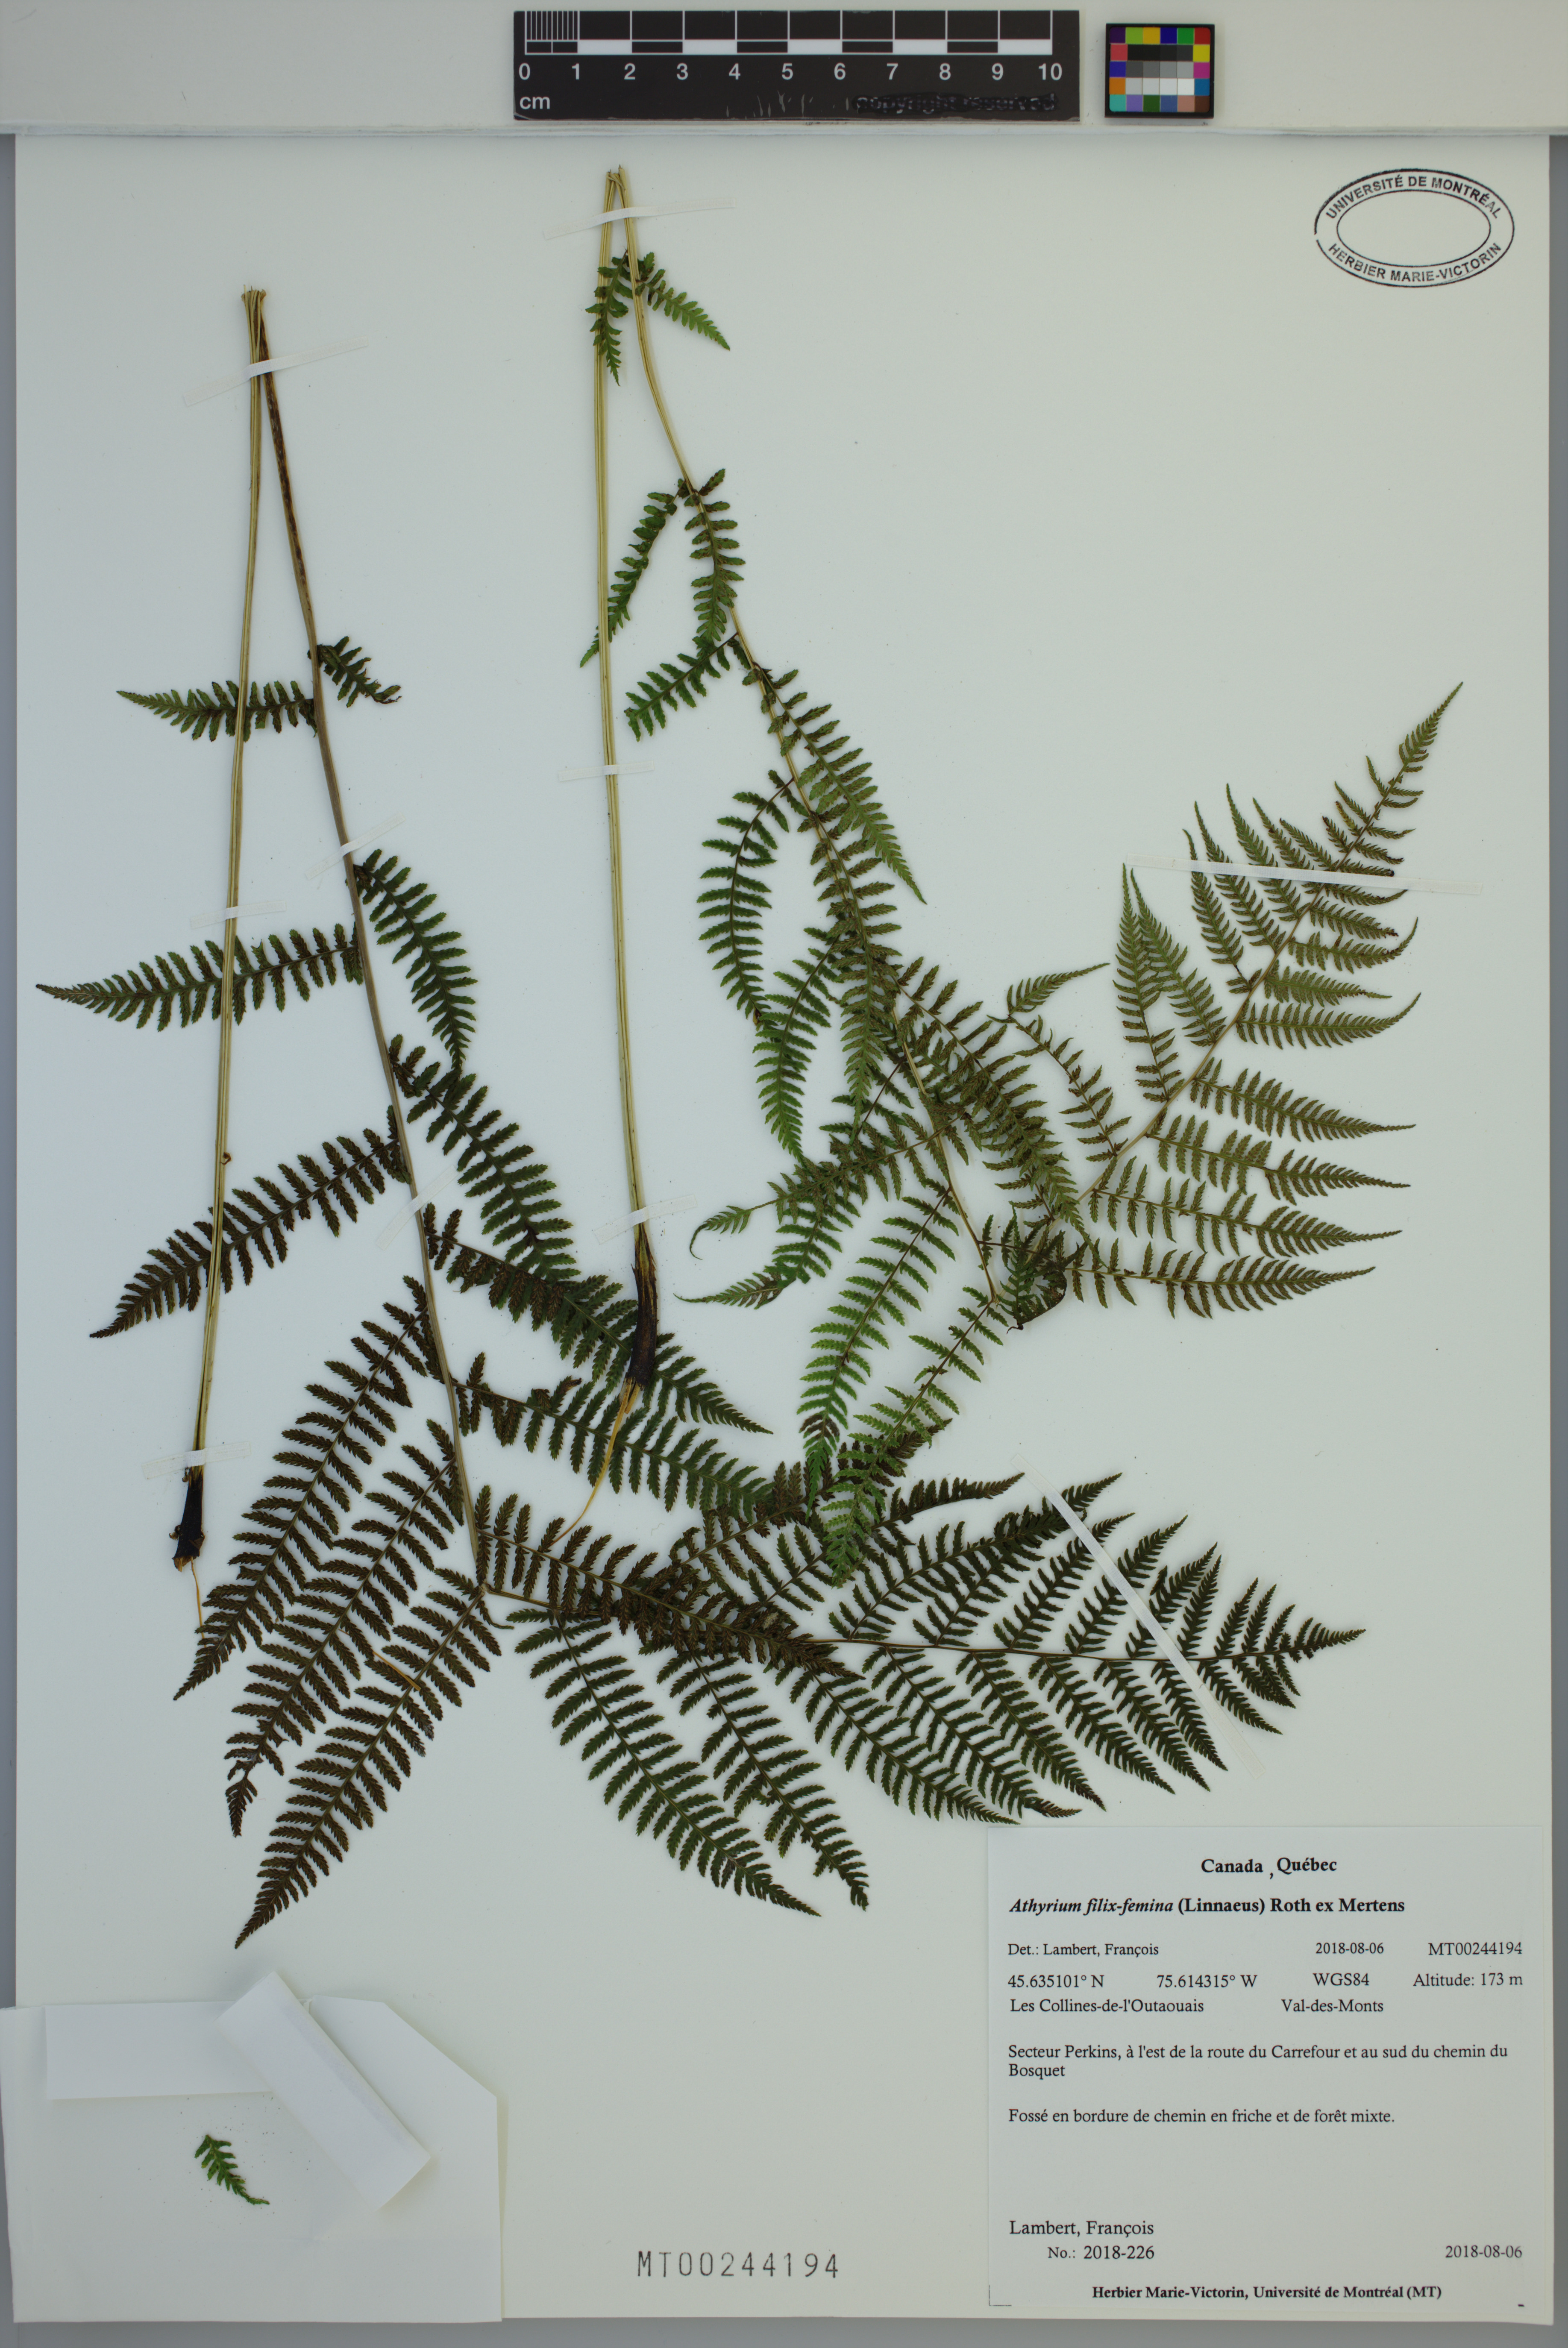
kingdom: Plantae
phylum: Tracheophyta
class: Polypodiopsida
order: Polypodiales
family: Athyriaceae
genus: Athyrium
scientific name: Athyrium filix-femina
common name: Lady fern
